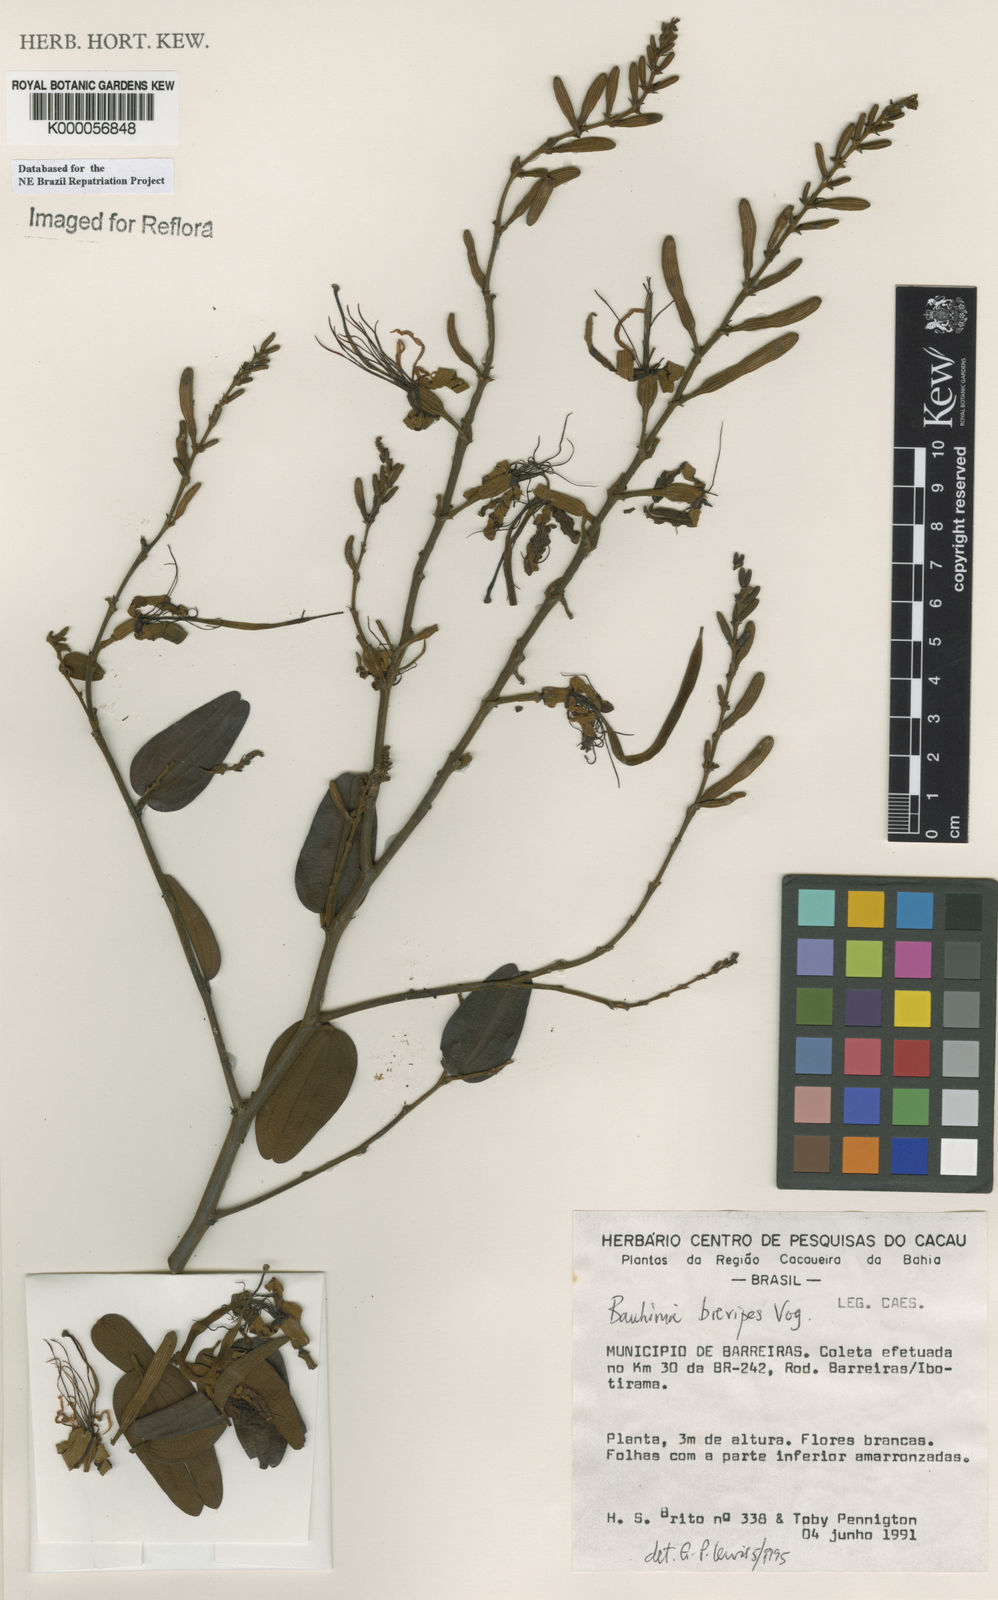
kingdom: Plantae
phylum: Tracheophyta
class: Magnoliopsida
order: Fabales
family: Fabaceae
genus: Bauhinia
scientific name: Bauhinia brevipes
